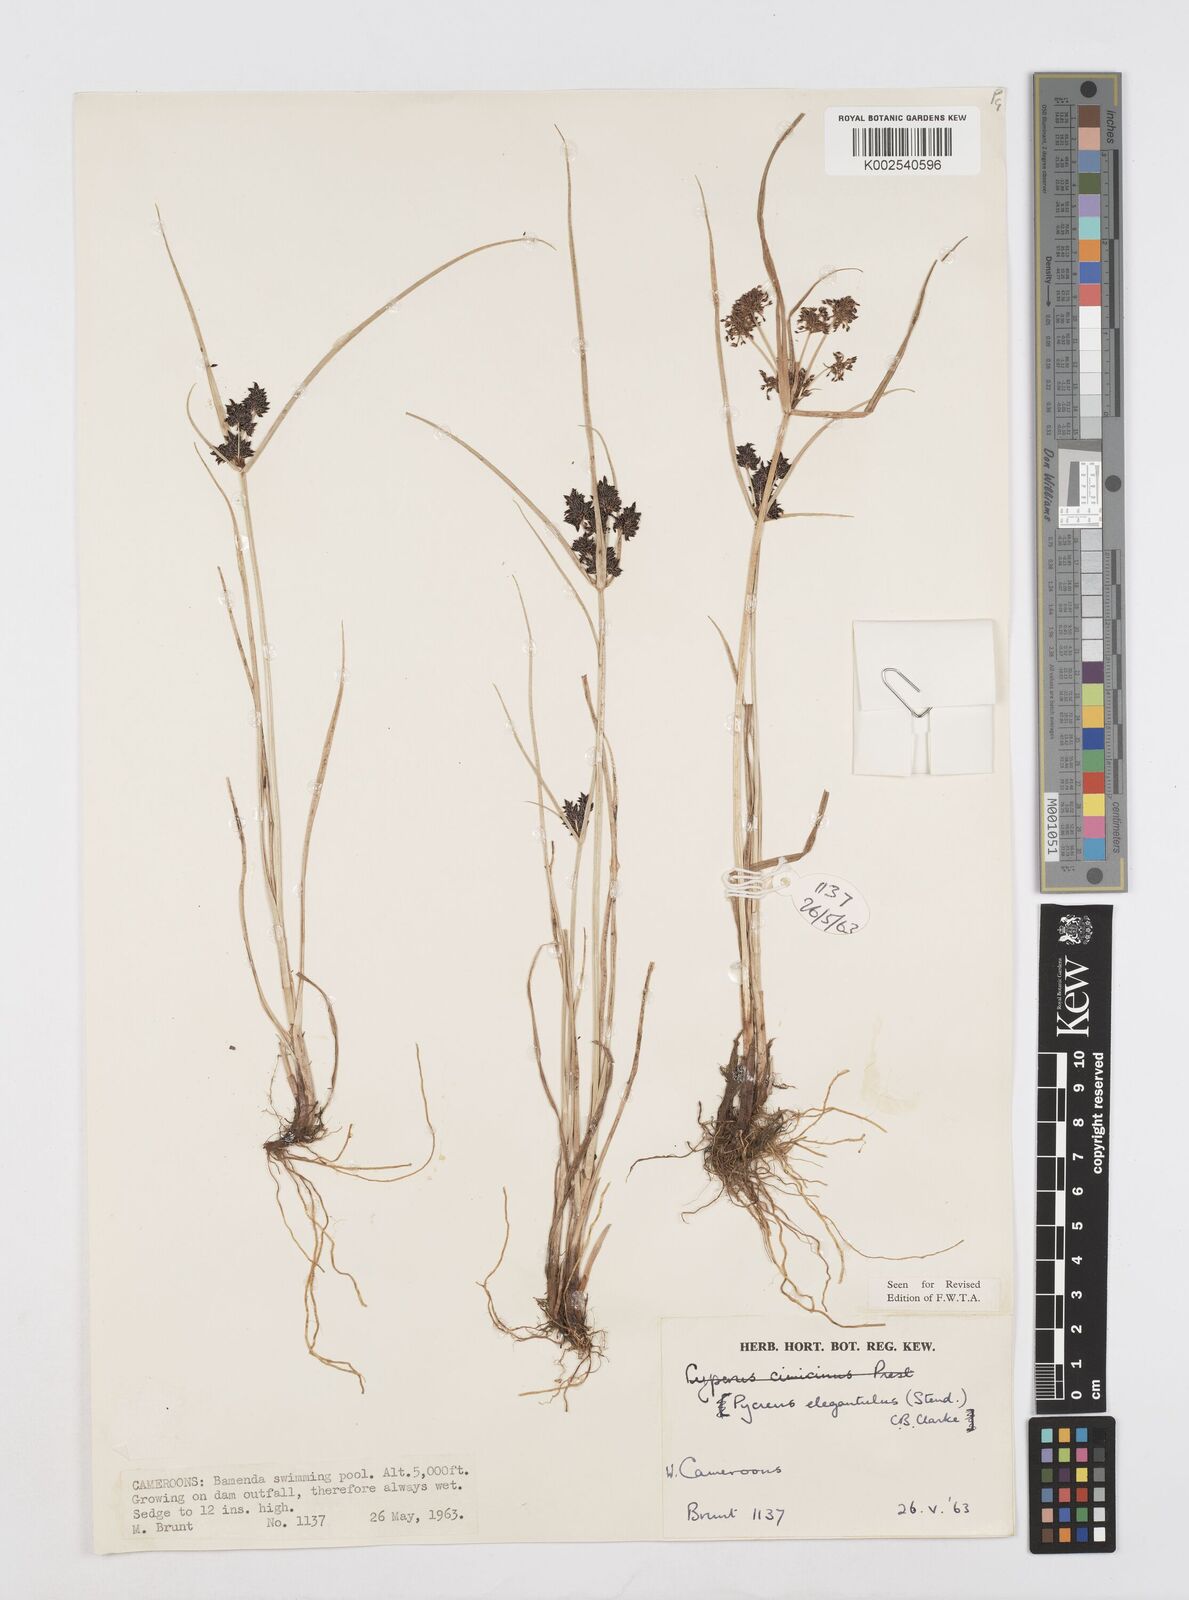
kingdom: Plantae
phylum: Tracheophyta
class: Liliopsida
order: Poales
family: Cyperaceae
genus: Cyperus
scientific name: Cyperus elegantulus
